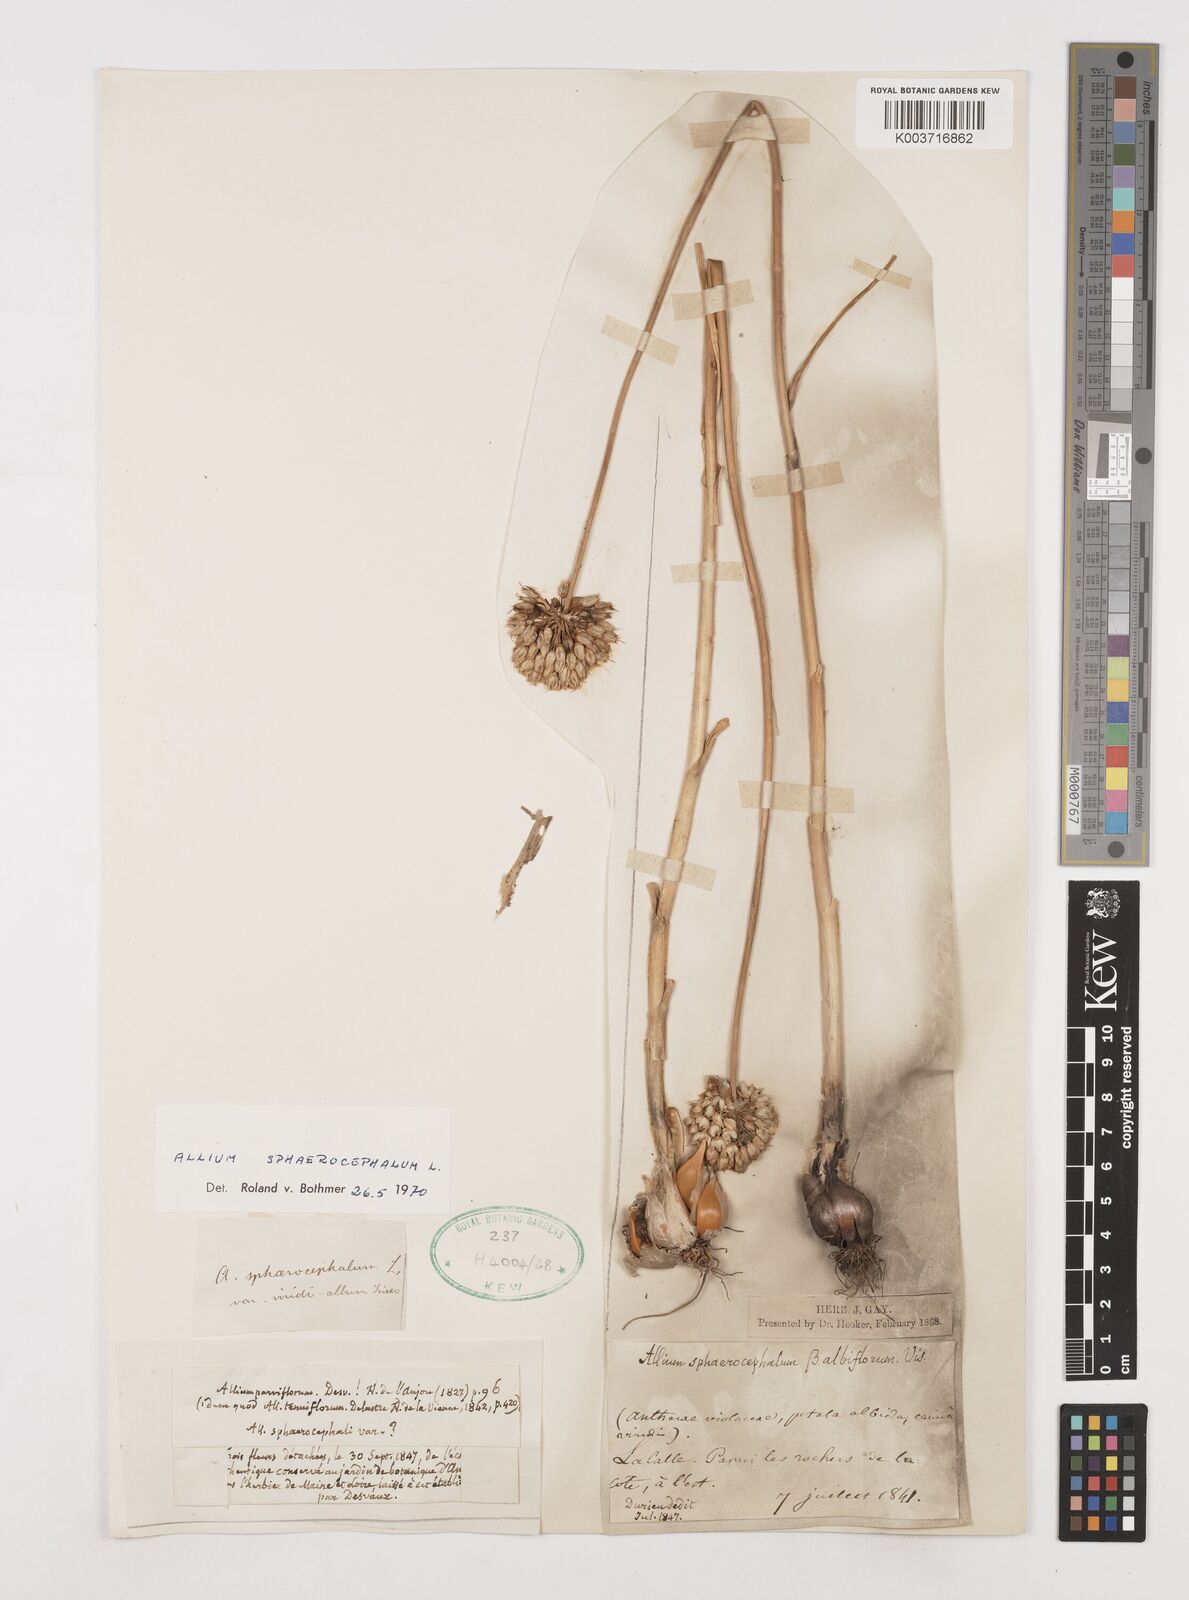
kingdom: Plantae
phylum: Tracheophyta
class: Liliopsida
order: Asparagales
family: Amaryllidaceae
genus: Allium
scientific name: Allium sphaerocephalon
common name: Round-headed leek
